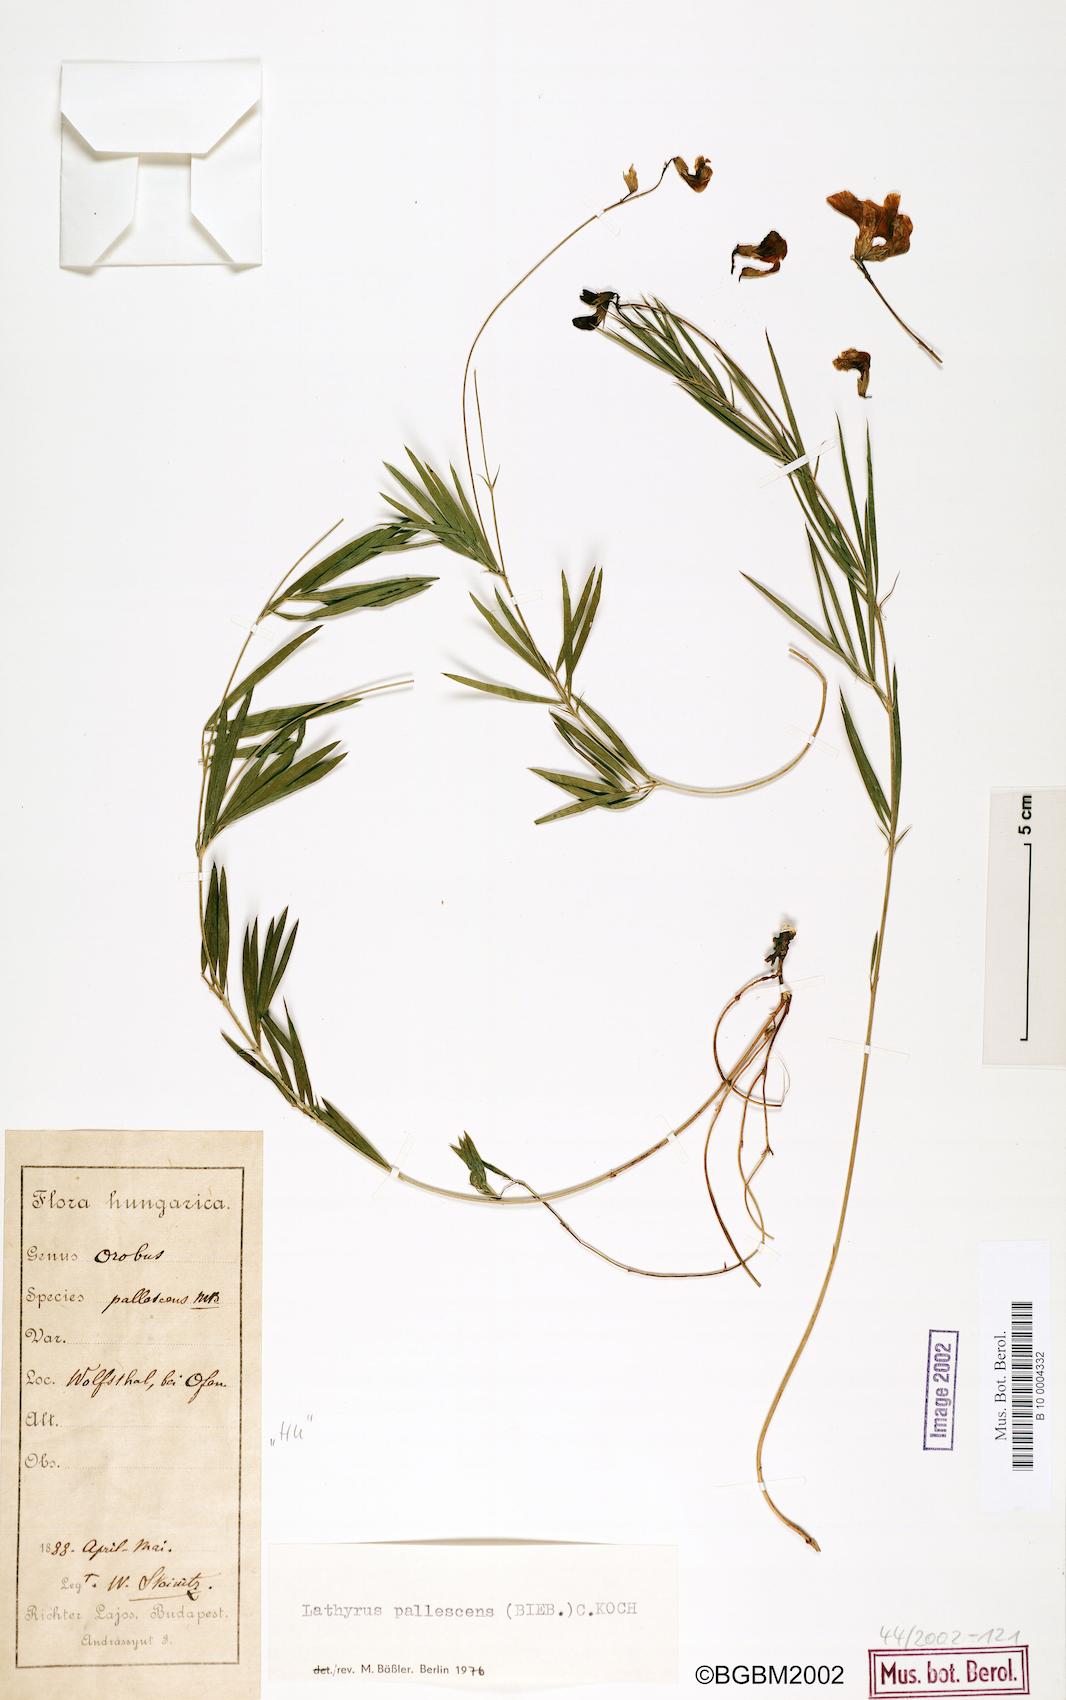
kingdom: Plantae
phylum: Tracheophyta
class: Magnoliopsida
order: Fabales
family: Fabaceae
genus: Lathyrus
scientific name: Lathyrus pallescens
